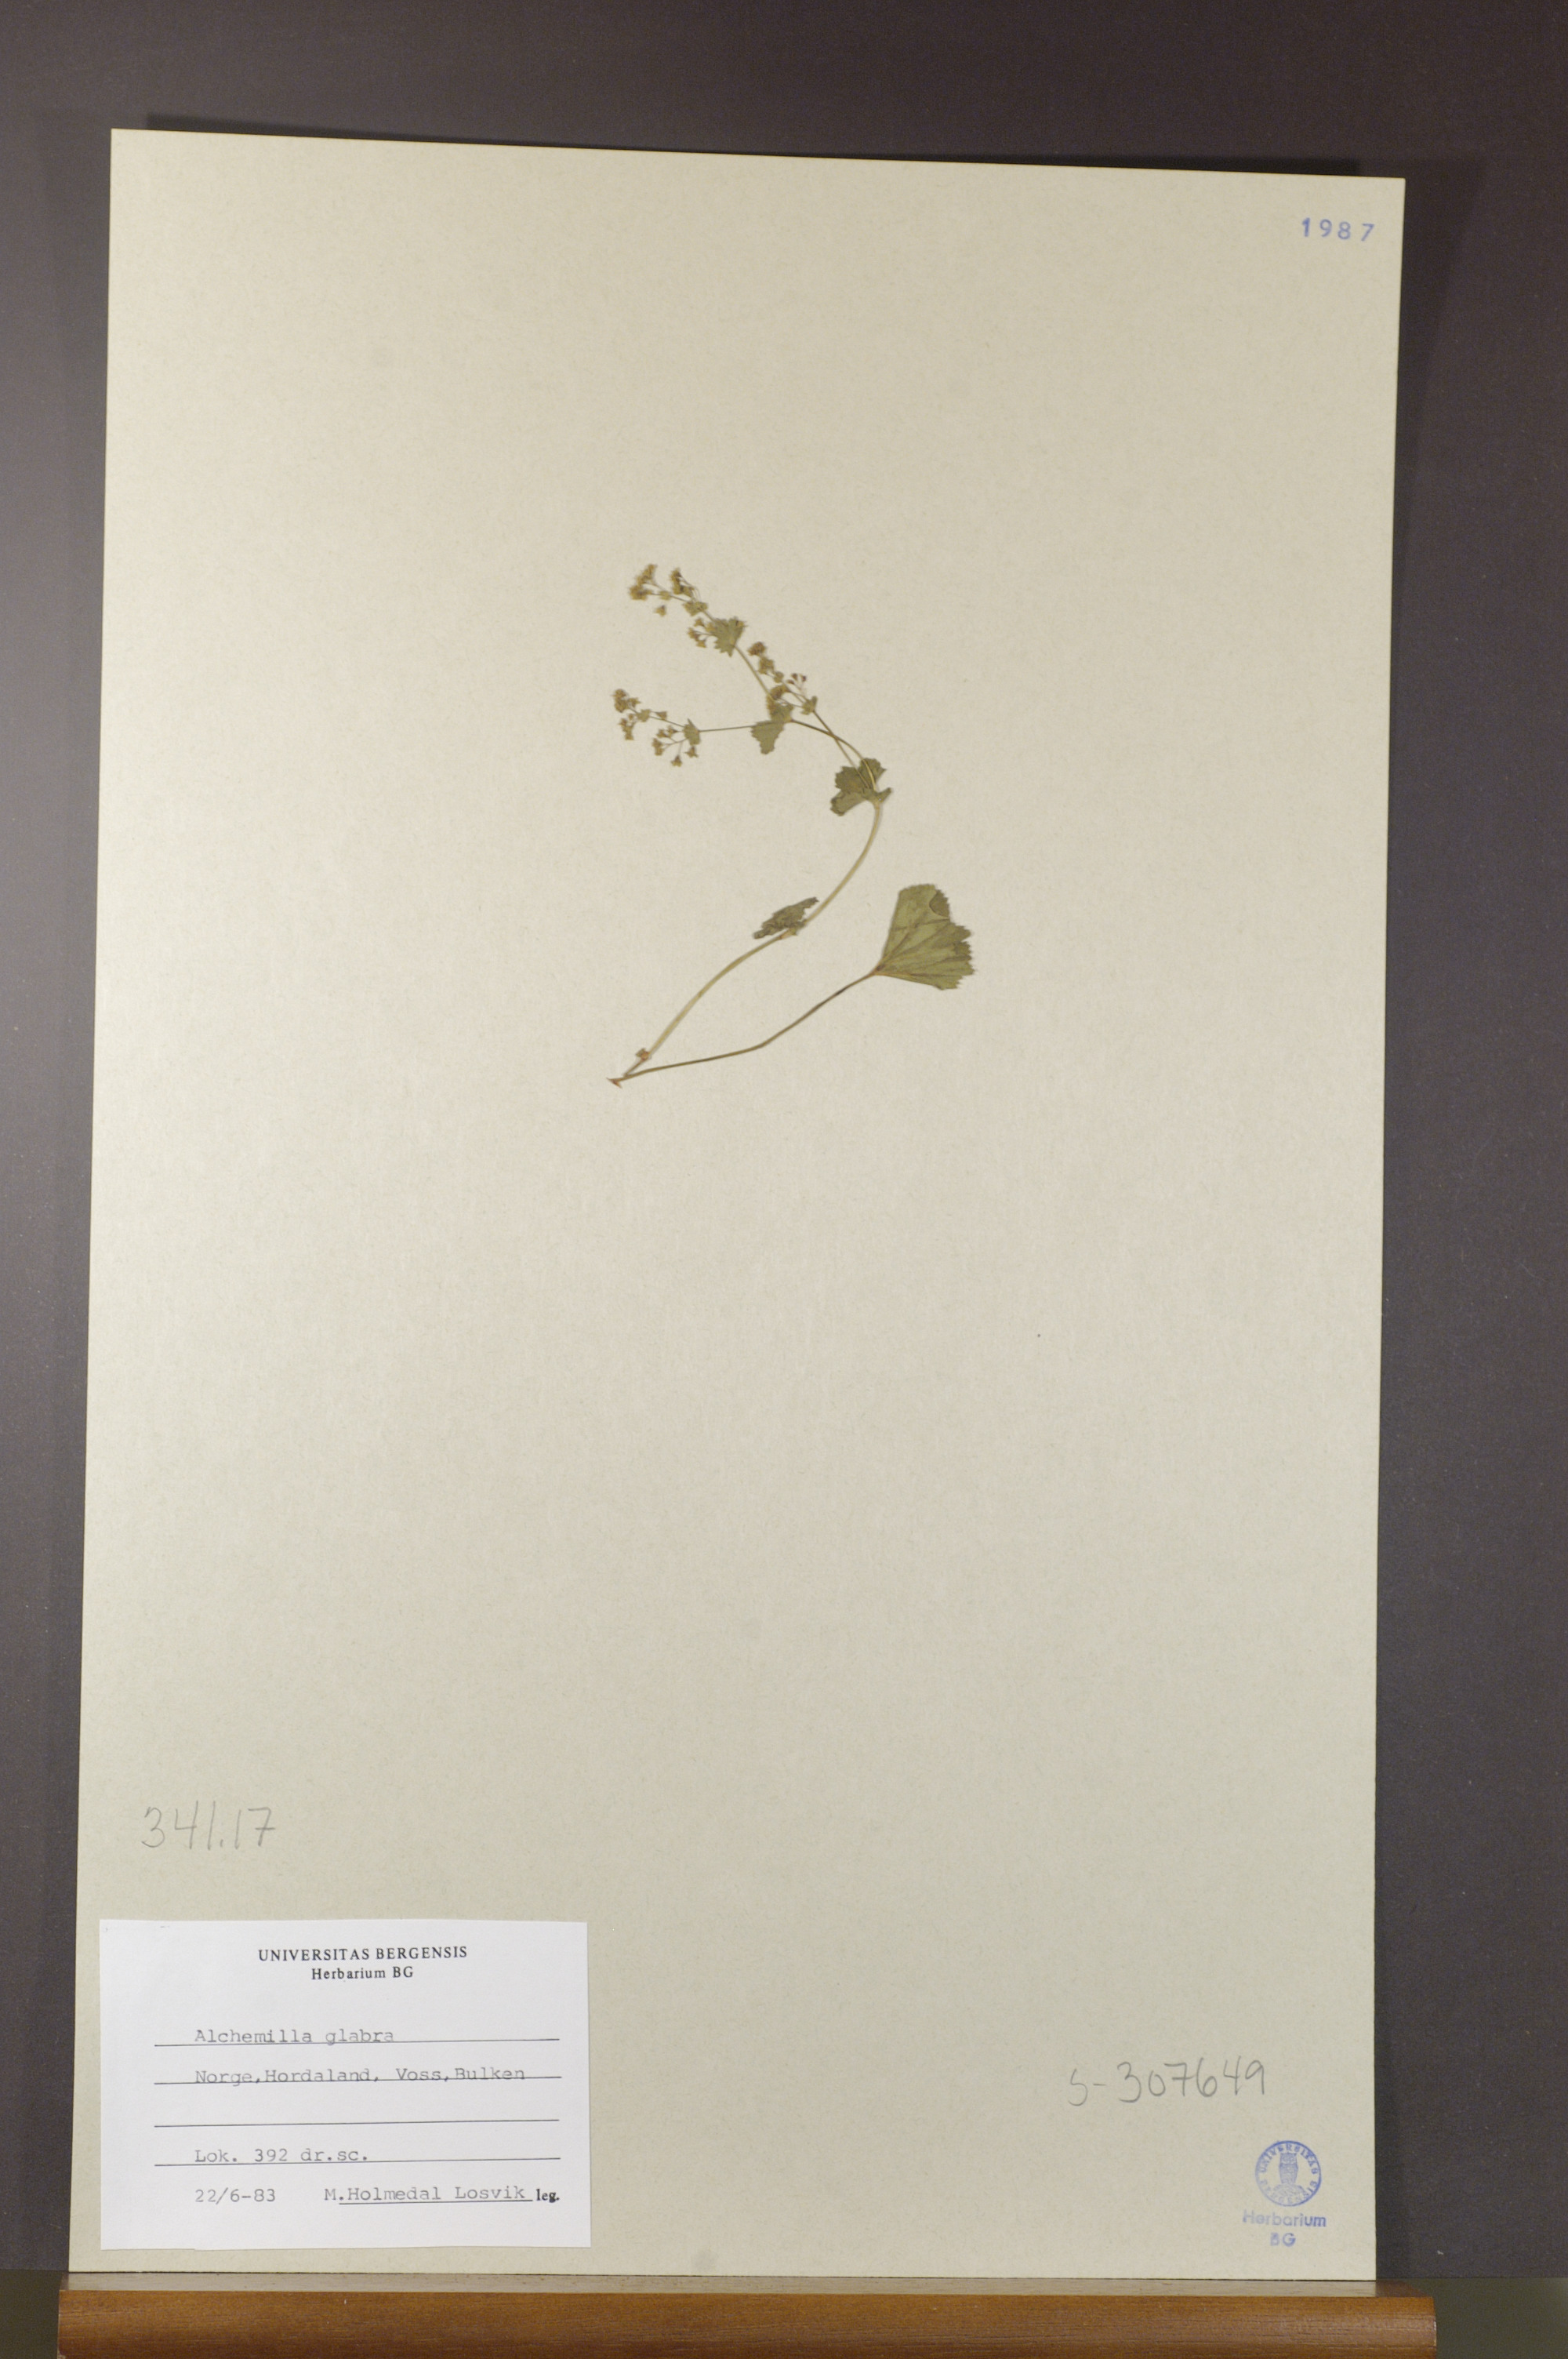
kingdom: Plantae
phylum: Tracheophyta
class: Magnoliopsida
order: Rosales
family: Rosaceae
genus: Alchemilla
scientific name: Alchemilla glabra
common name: Smooth lady's-mantle
